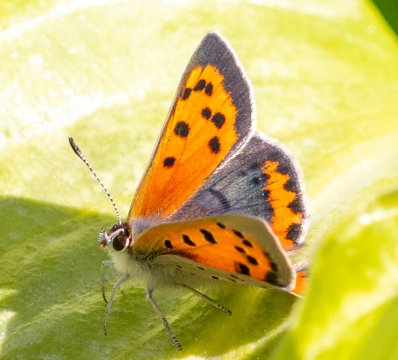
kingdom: Animalia
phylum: Arthropoda
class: Insecta
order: Lepidoptera
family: Lycaenidae
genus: Lycaena
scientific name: Lycaena phlaeas
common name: American Copper
